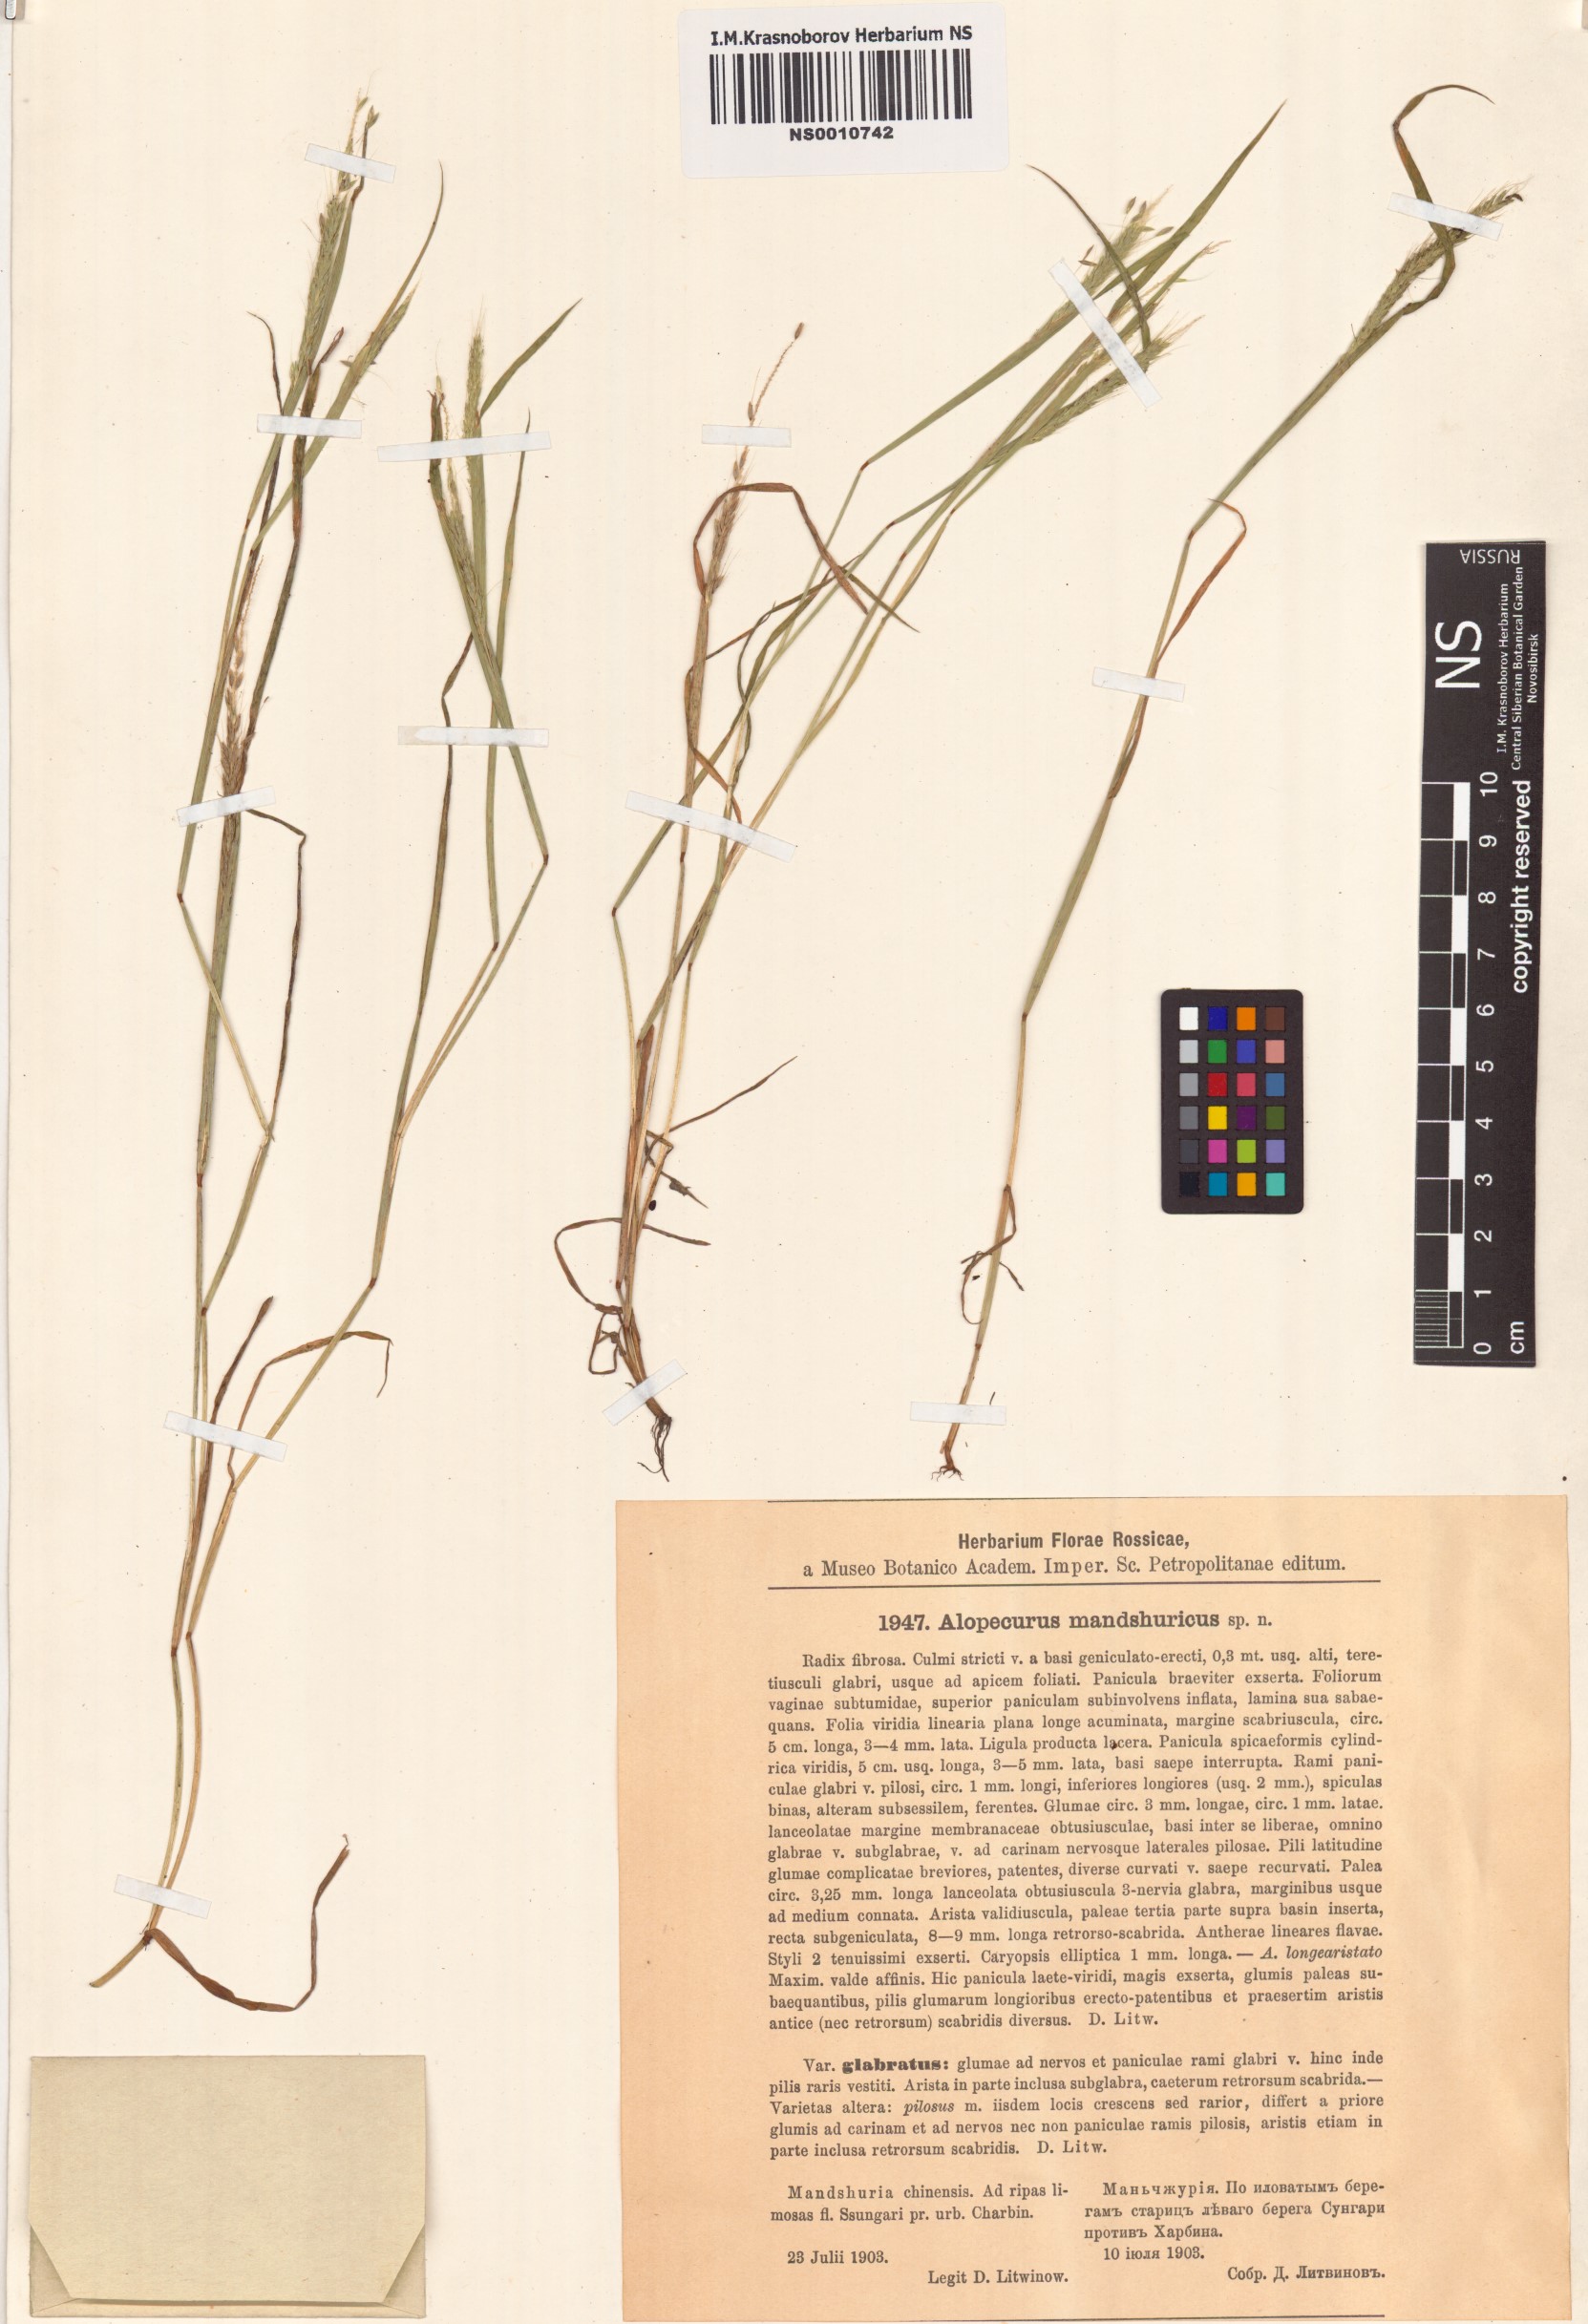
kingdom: Plantae
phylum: Tracheophyta
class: Liliopsida
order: Poales
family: Poaceae
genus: Alopecurus
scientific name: Alopecurus longiaristatus
